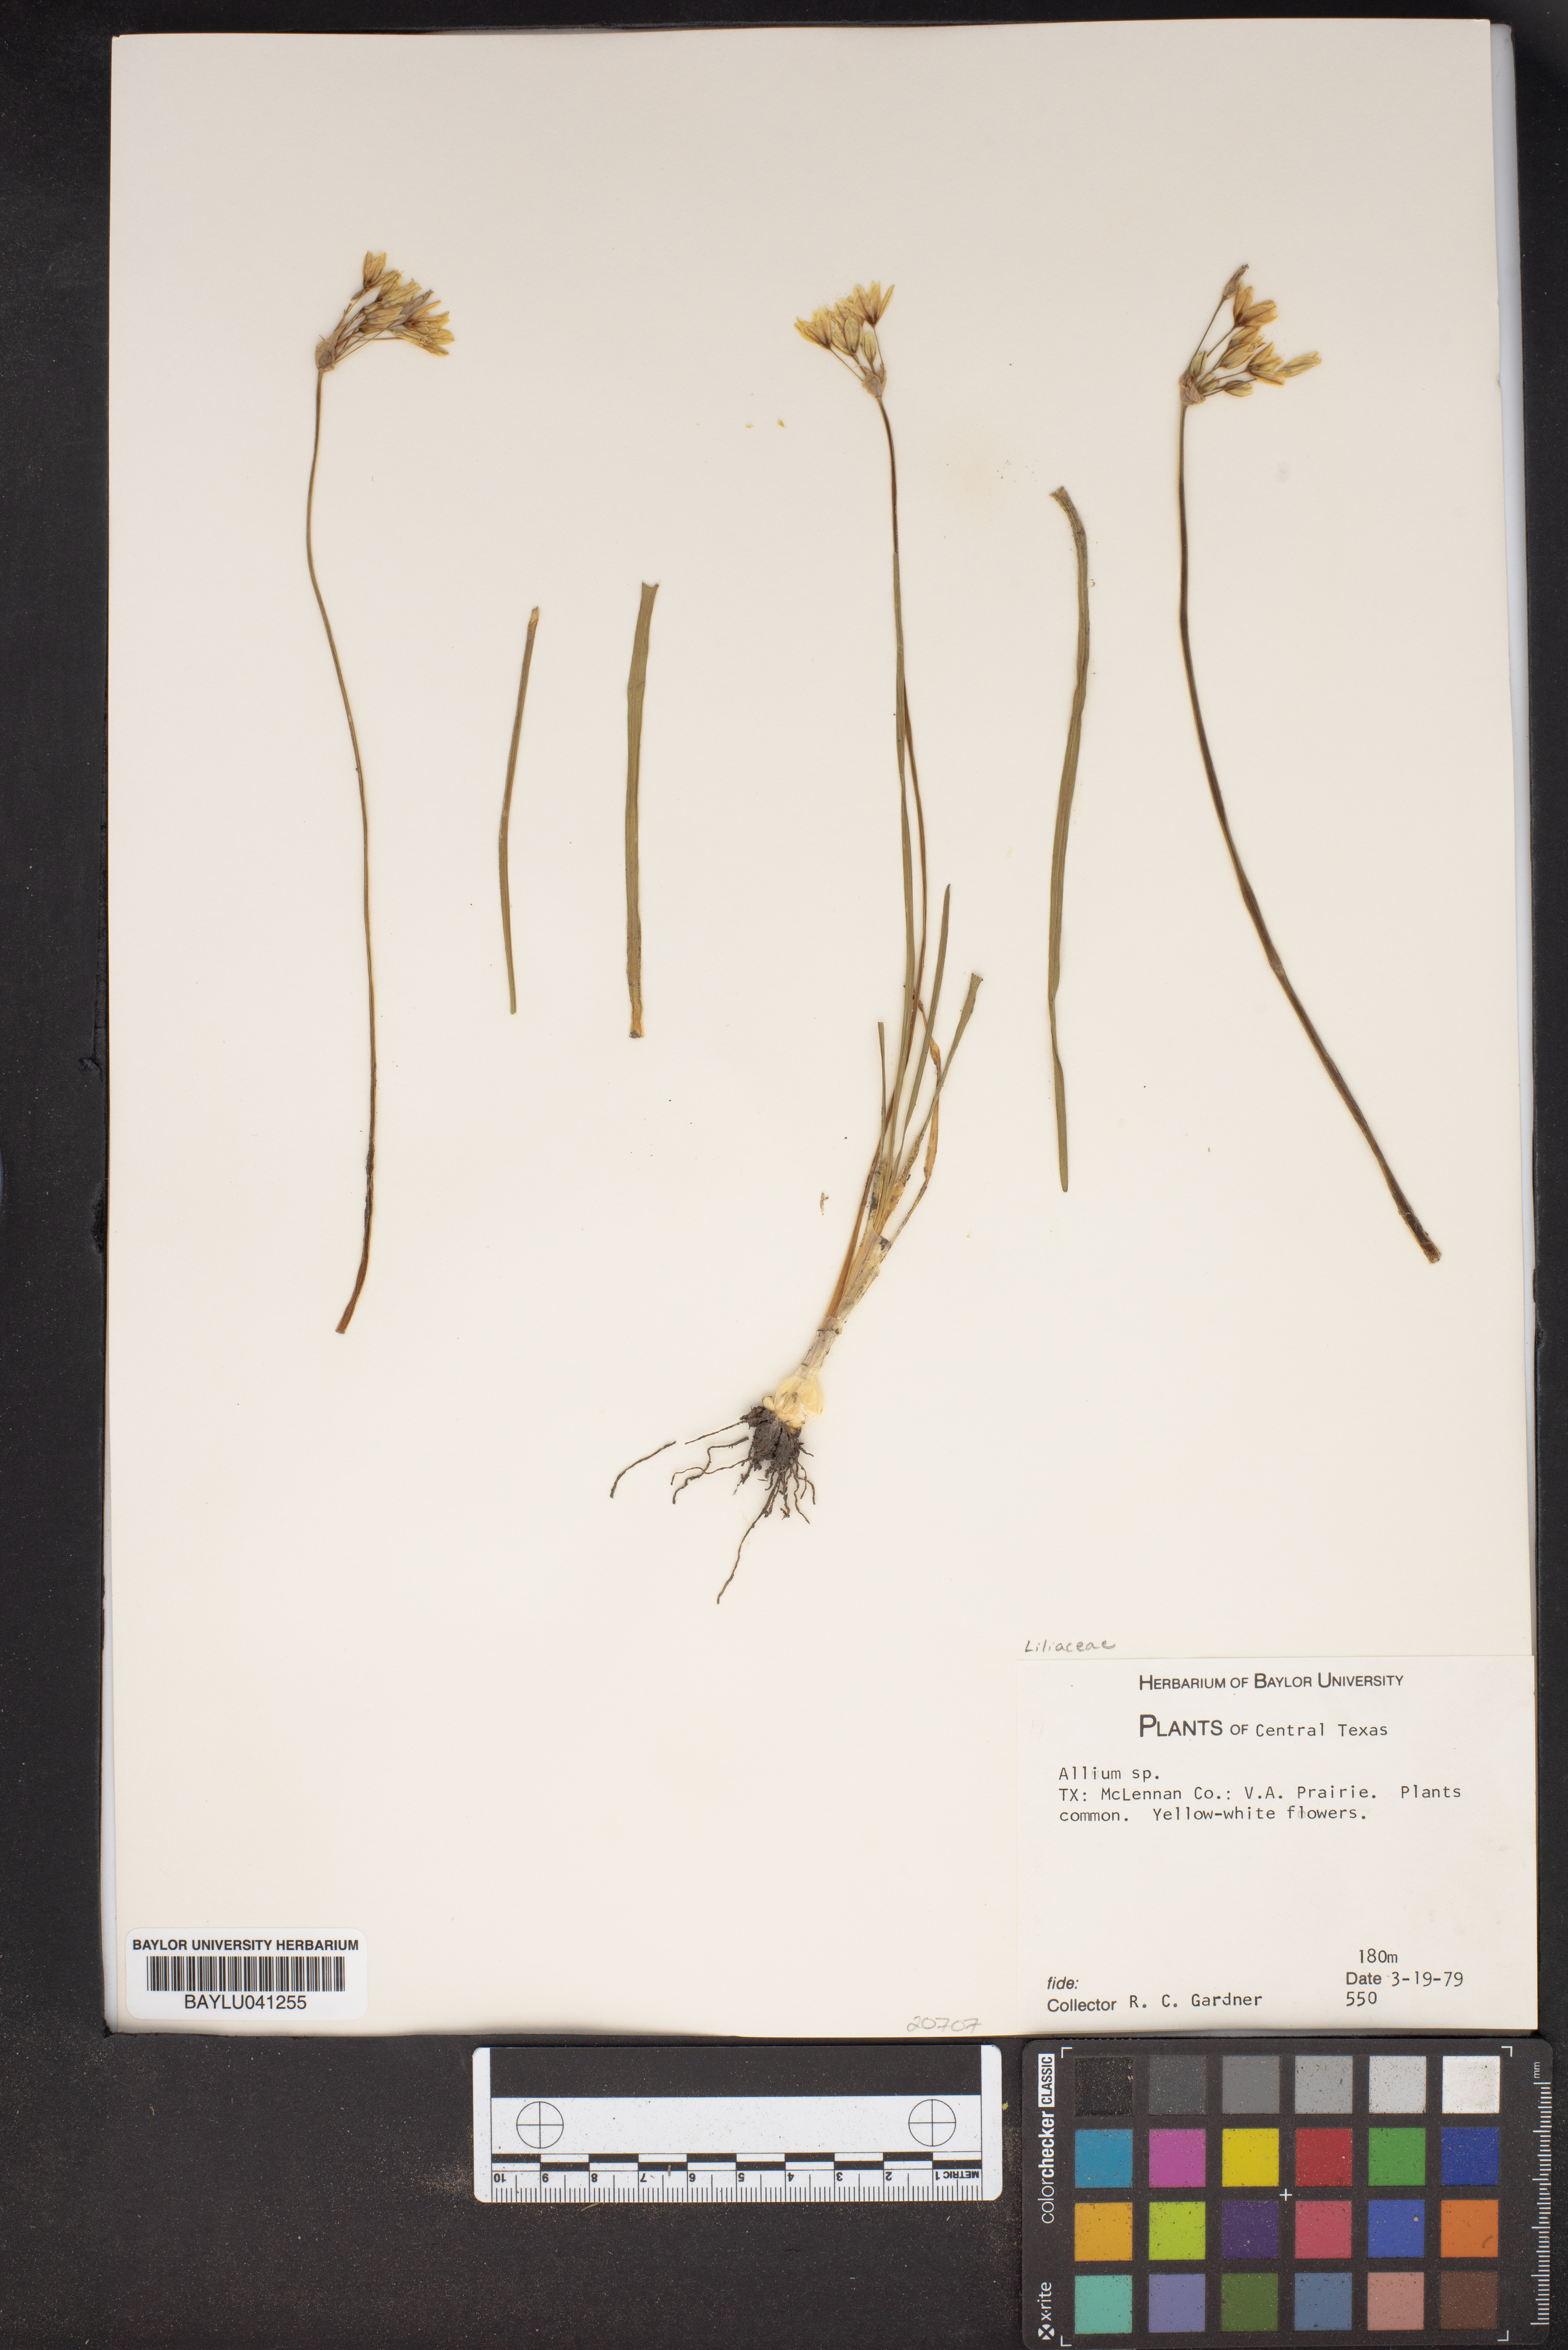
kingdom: Plantae
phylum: Tracheophyta
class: Liliopsida
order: Asparagales
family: Amaryllidaceae
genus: Allium
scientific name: Allium
